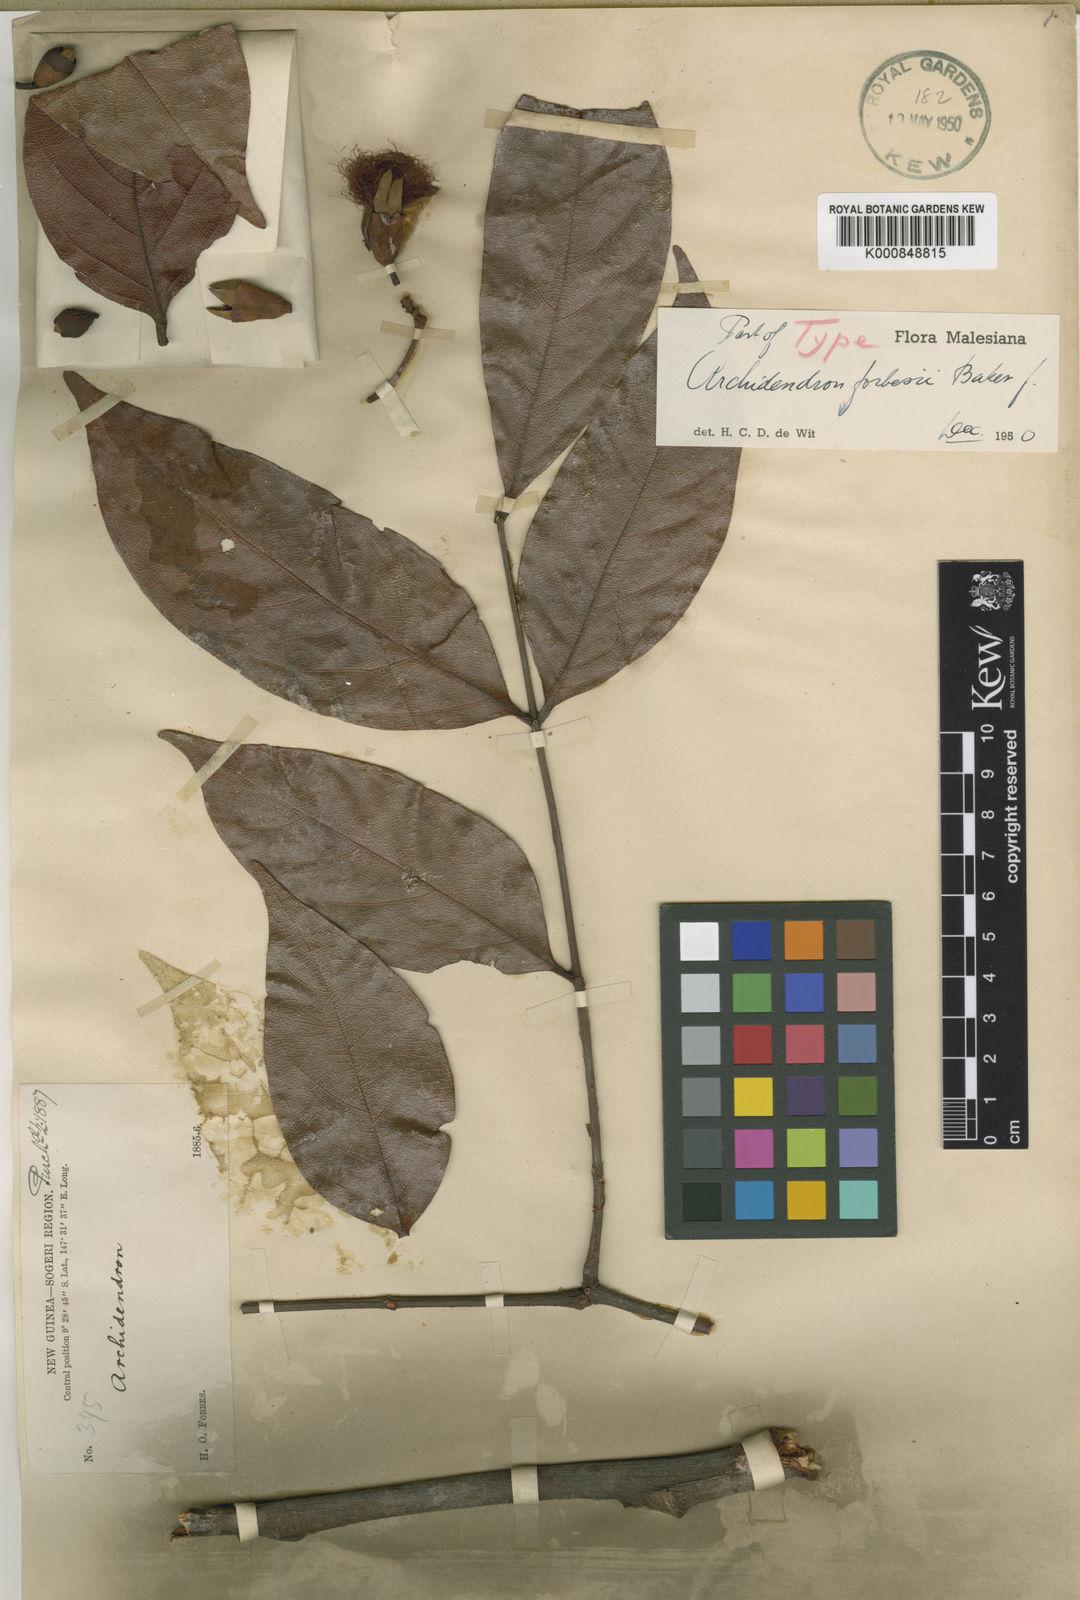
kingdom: Plantae
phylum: Tracheophyta
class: Magnoliopsida
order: Fabales
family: Fabaceae
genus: Archidendron
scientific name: Archidendron forbesii
